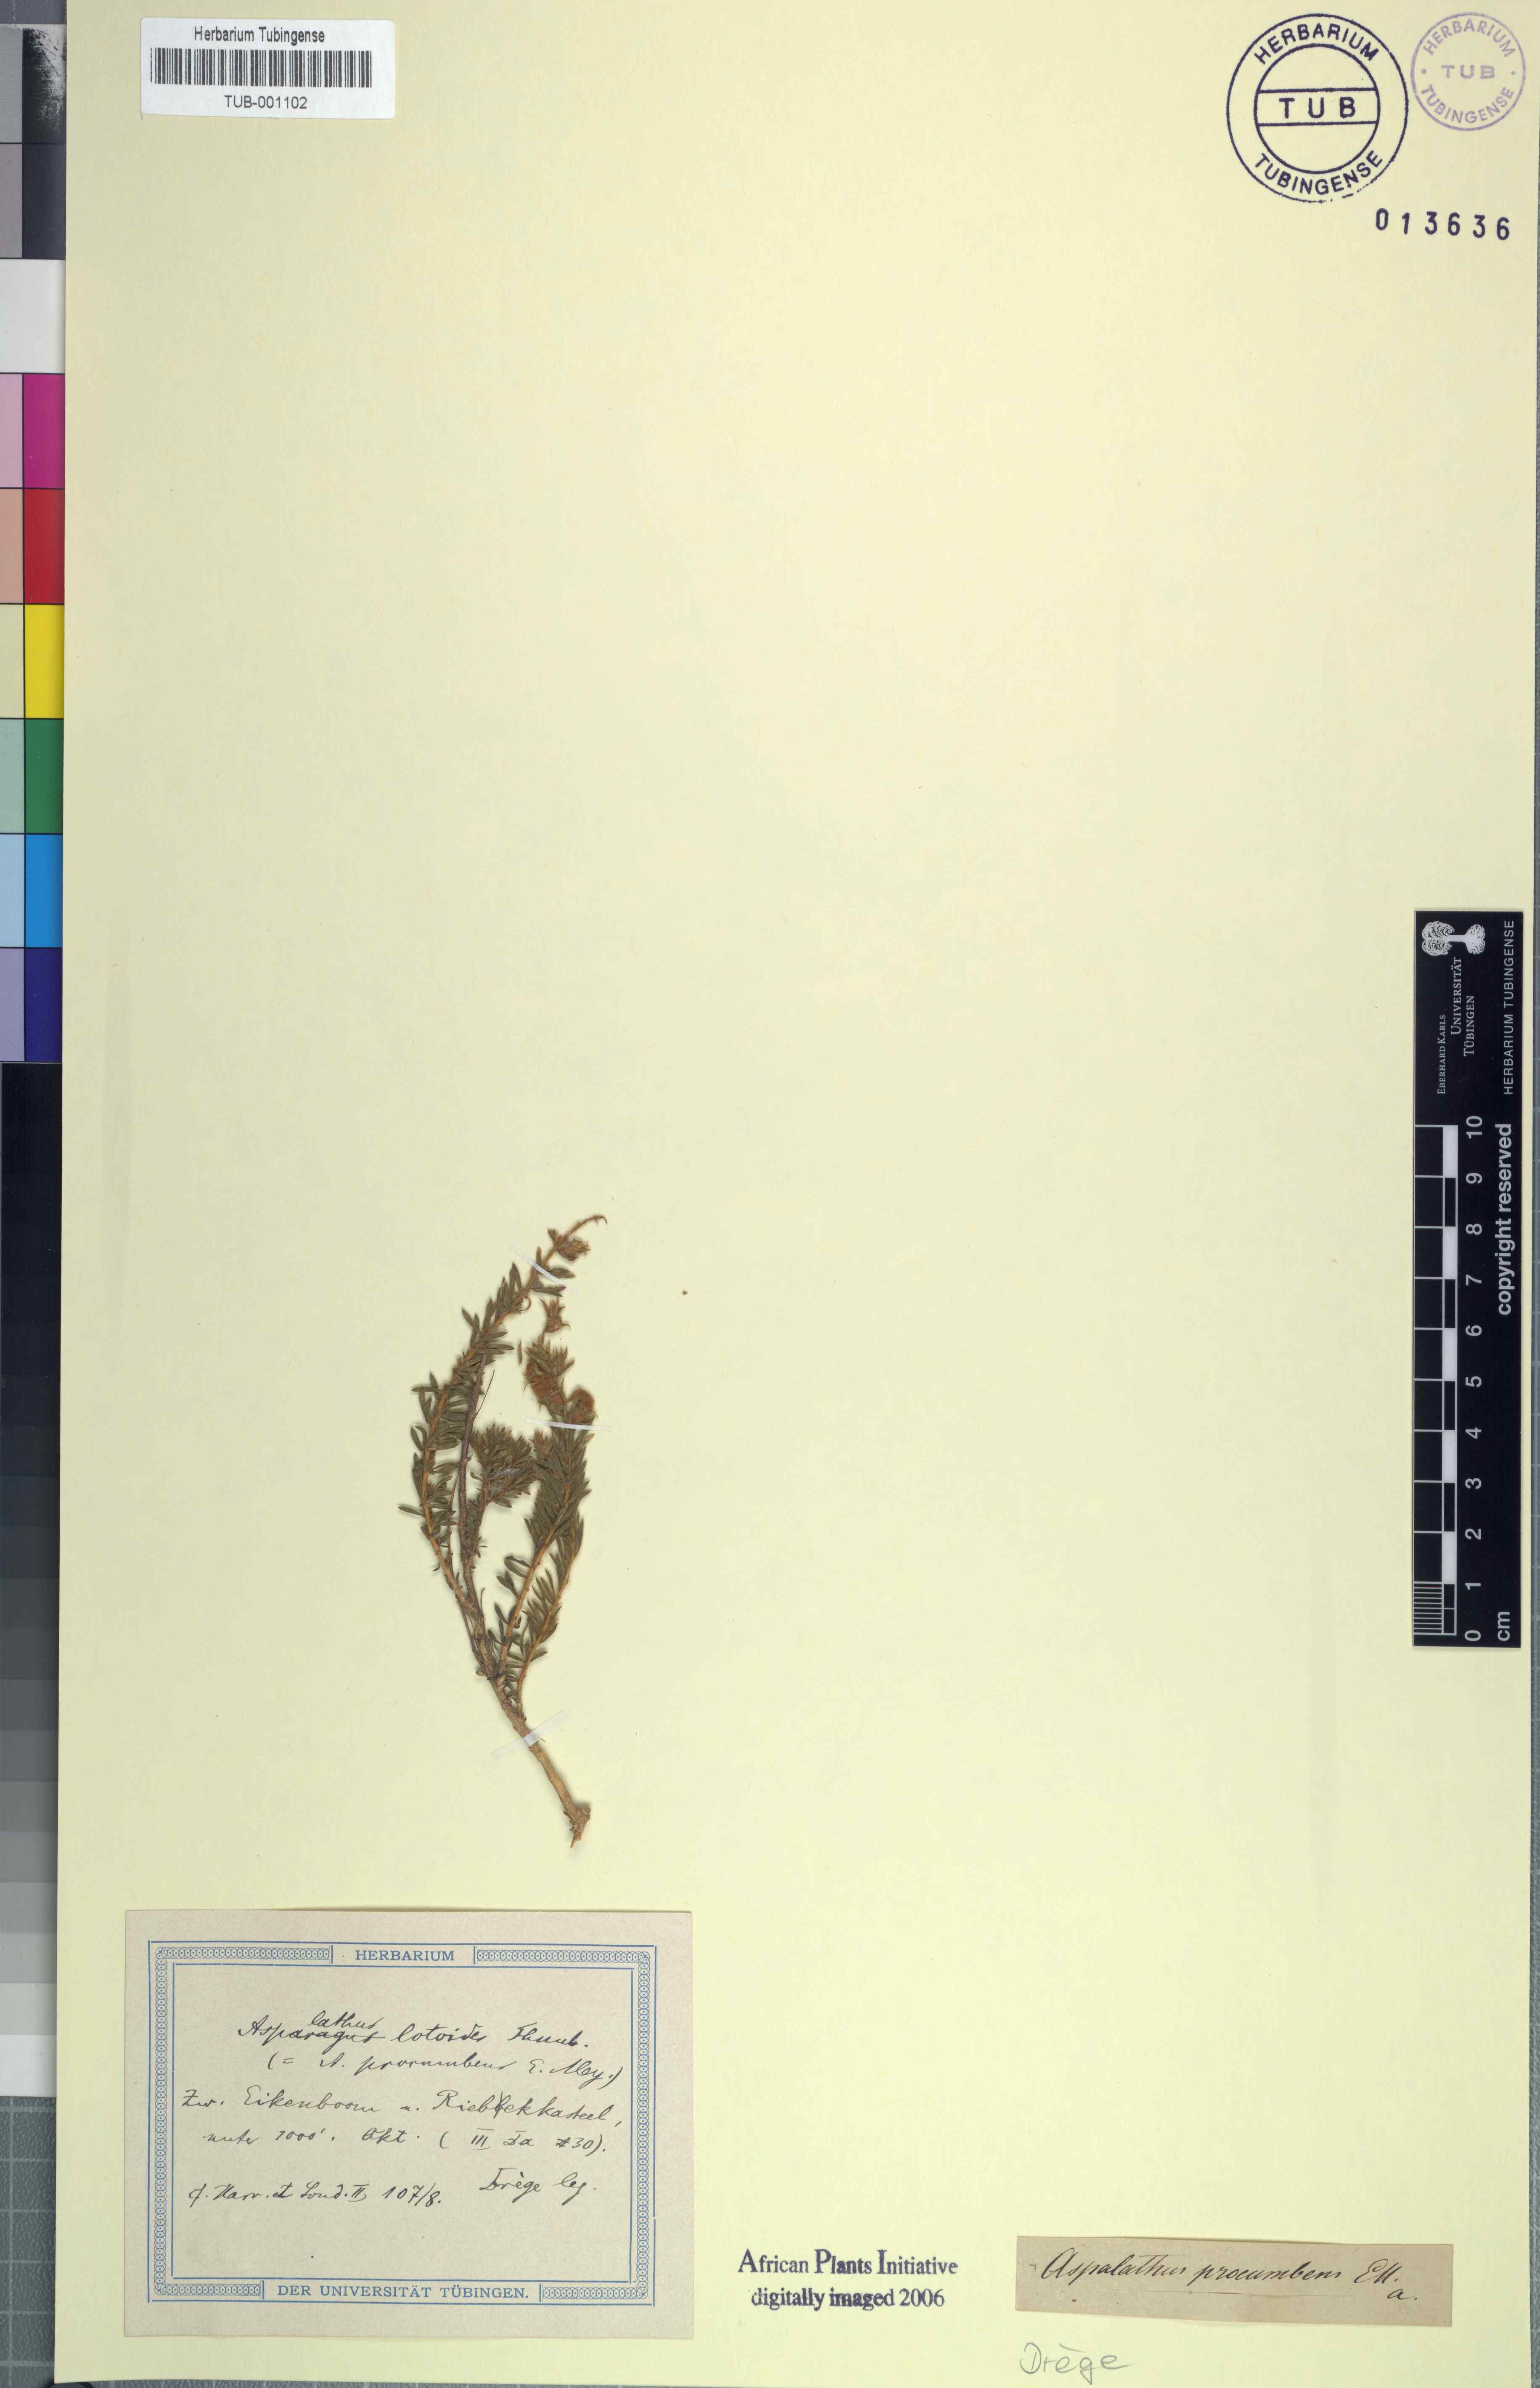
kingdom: Plantae
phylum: Tracheophyta
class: Magnoliopsida
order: Fabales
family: Fabaceae
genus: Aspalathus
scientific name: Aspalathus lotoides
